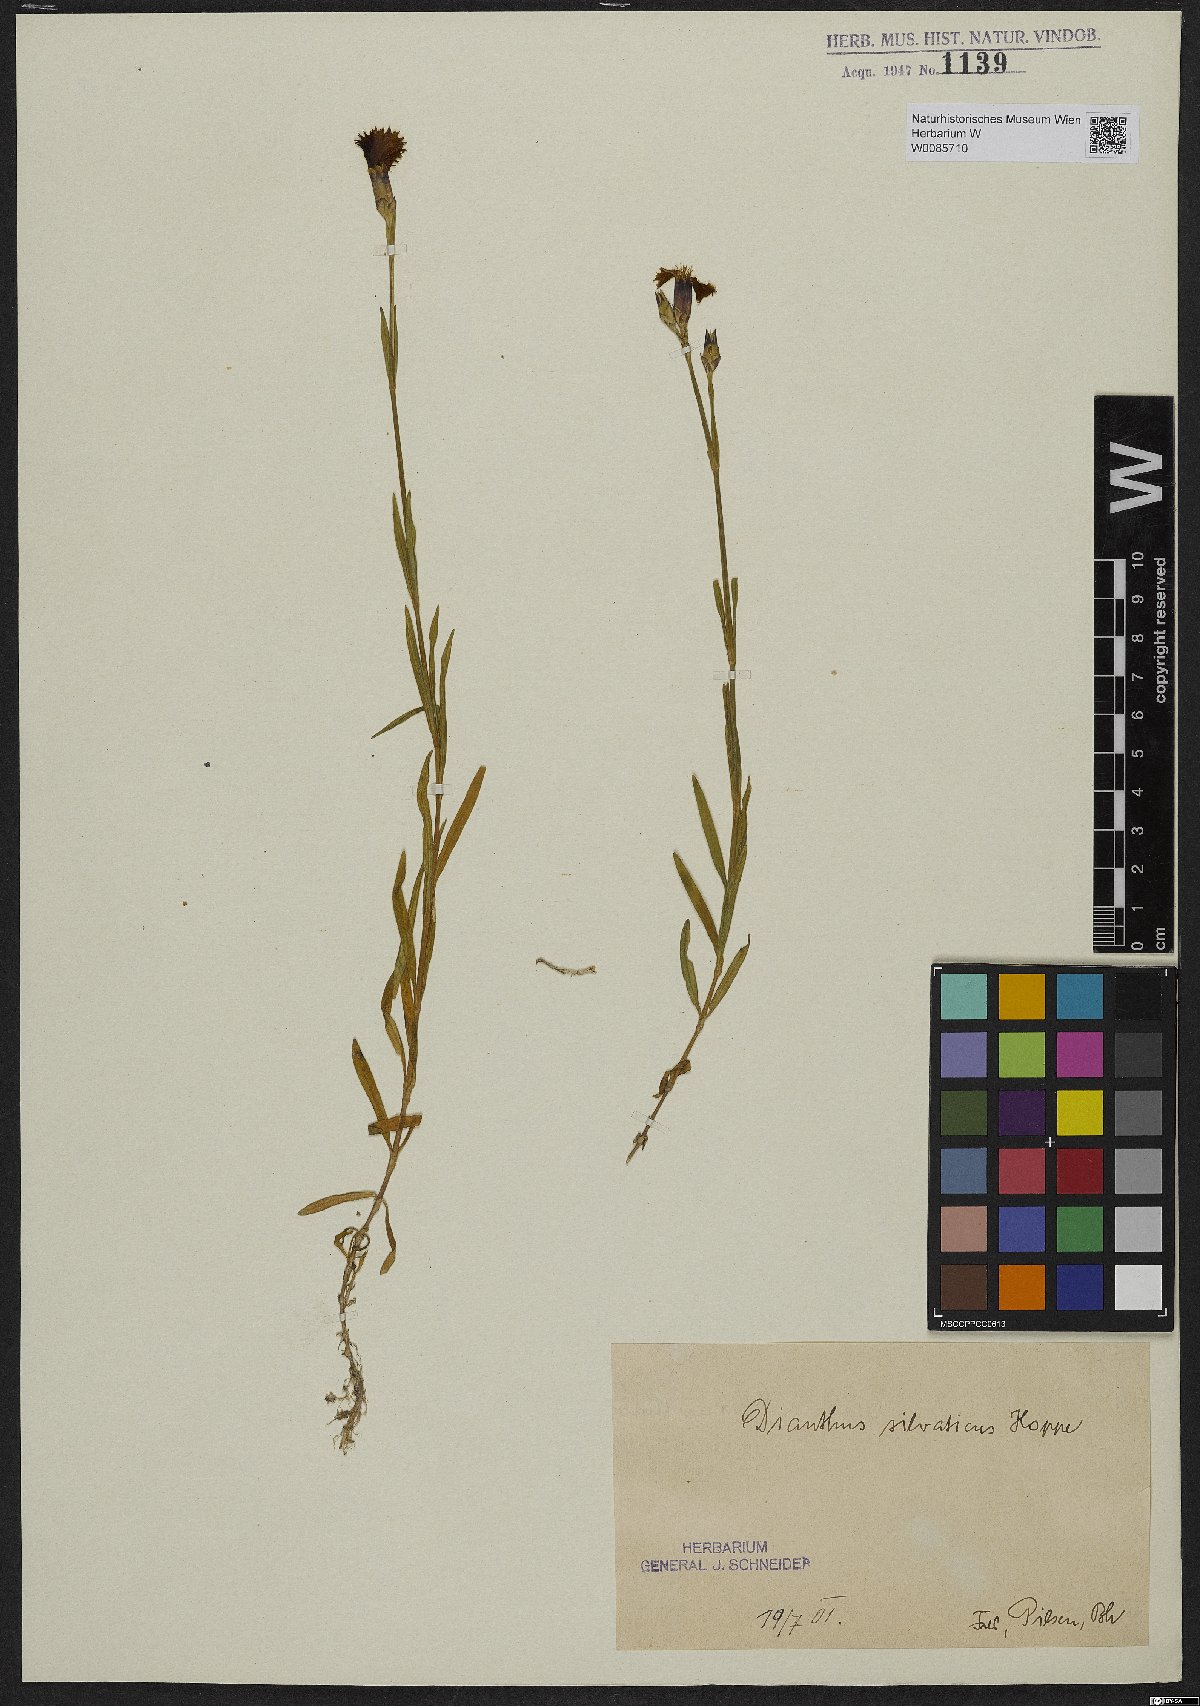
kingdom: Plantae
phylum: Tracheophyta
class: Magnoliopsida
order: Caryophyllales
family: Caryophyllaceae
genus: Dianthus
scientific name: Dianthus seguieri
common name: Ragged pink
